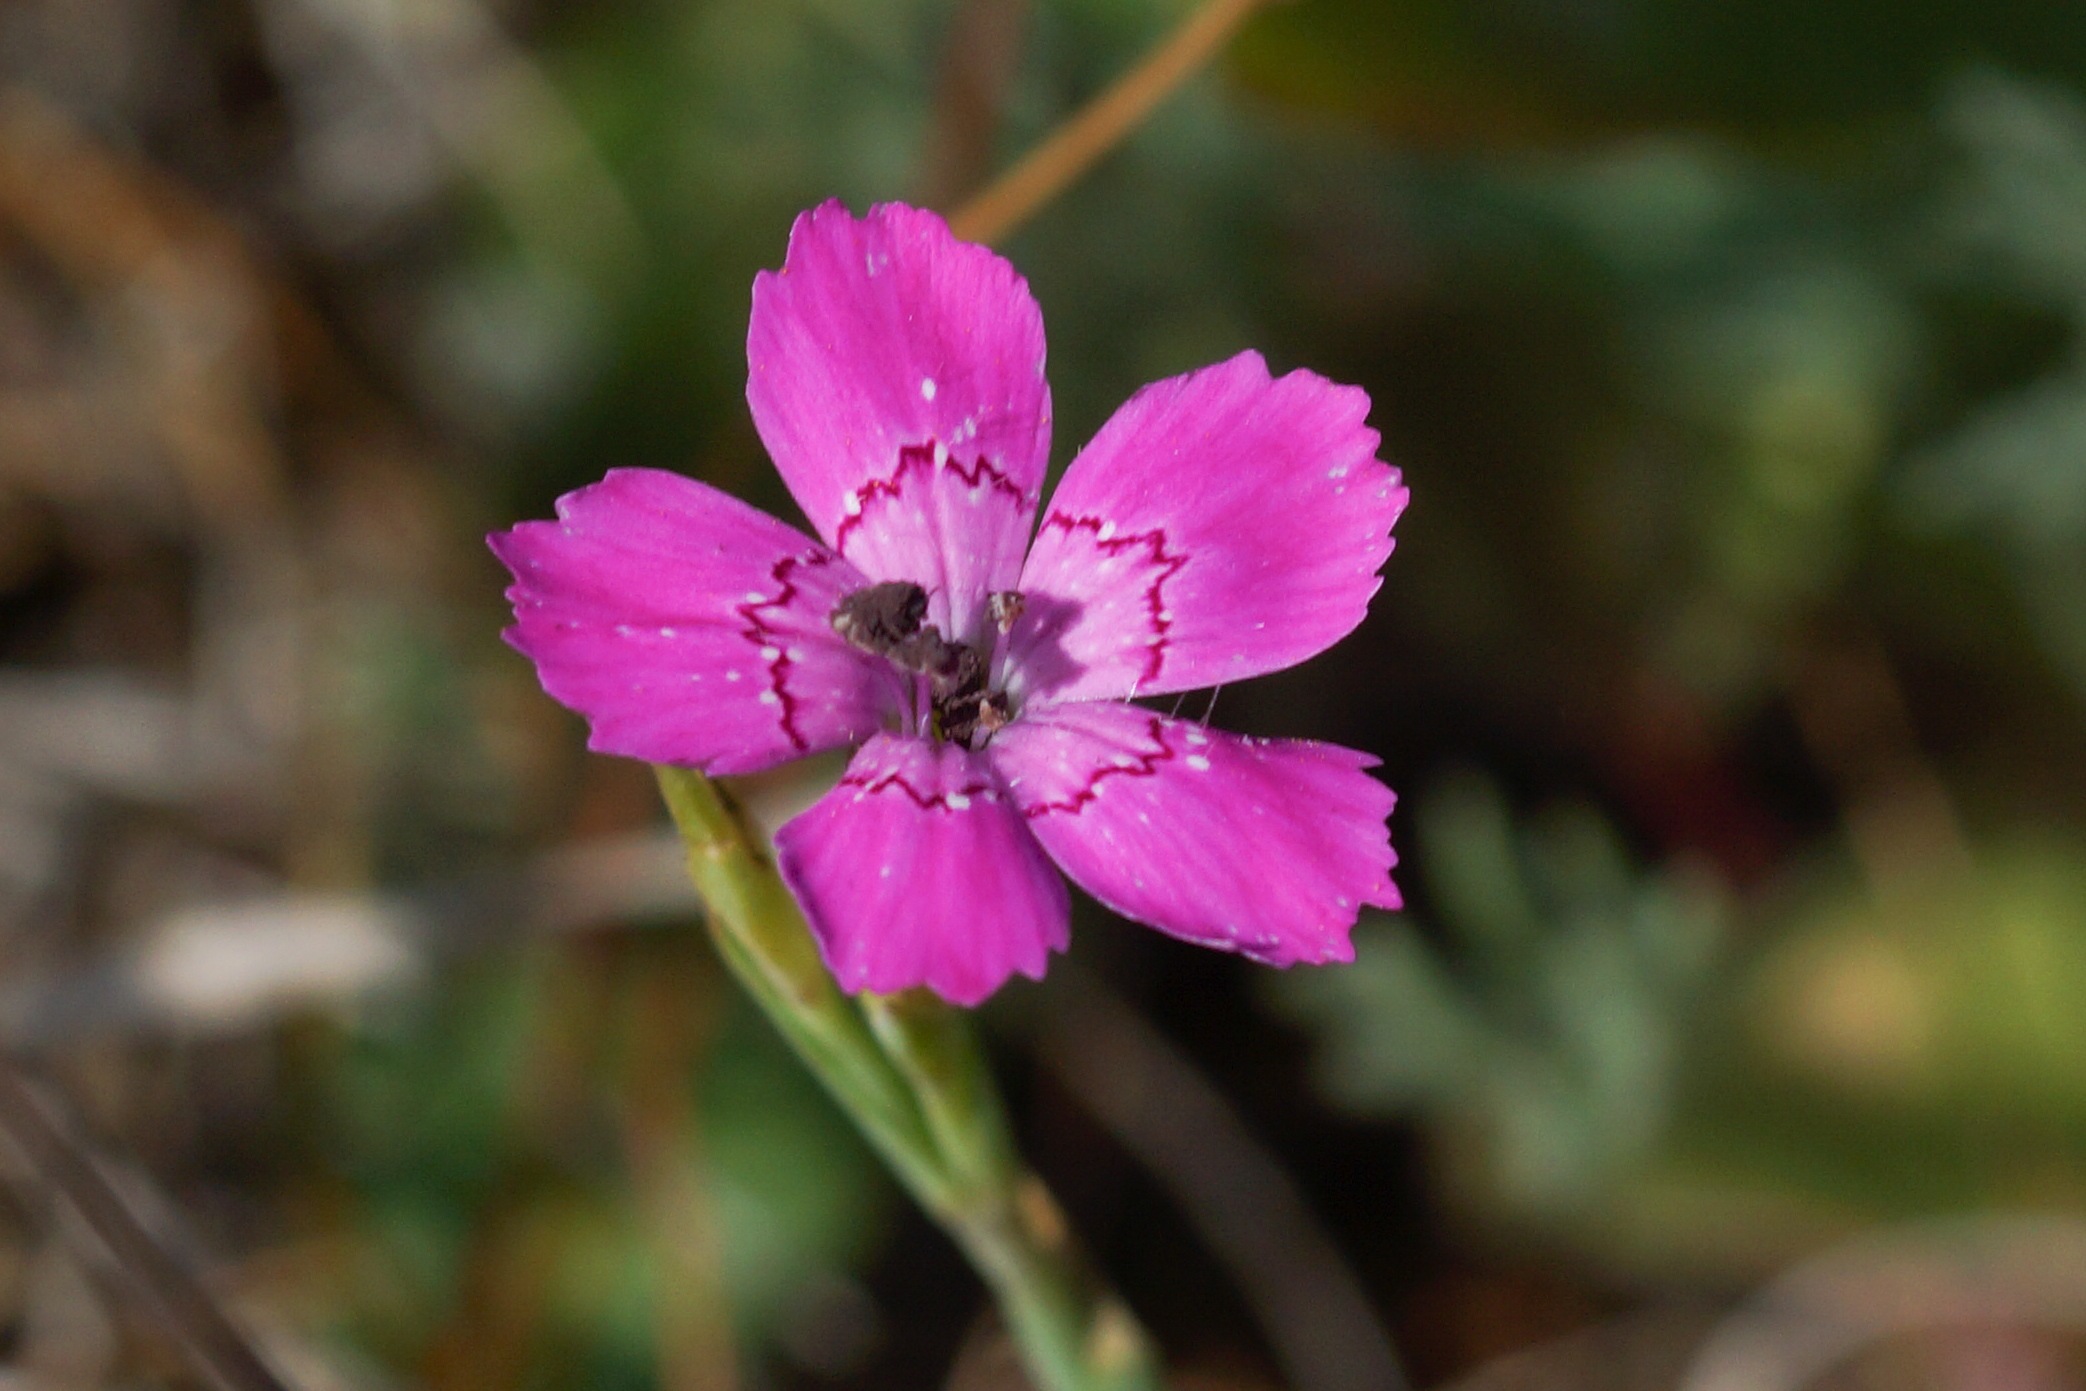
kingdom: Plantae
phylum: Tracheophyta
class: Magnoliopsida
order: Caryophyllales
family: Caryophyllaceae
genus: Dianthus
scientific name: Dianthus deltoides
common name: Bakke-nellike
